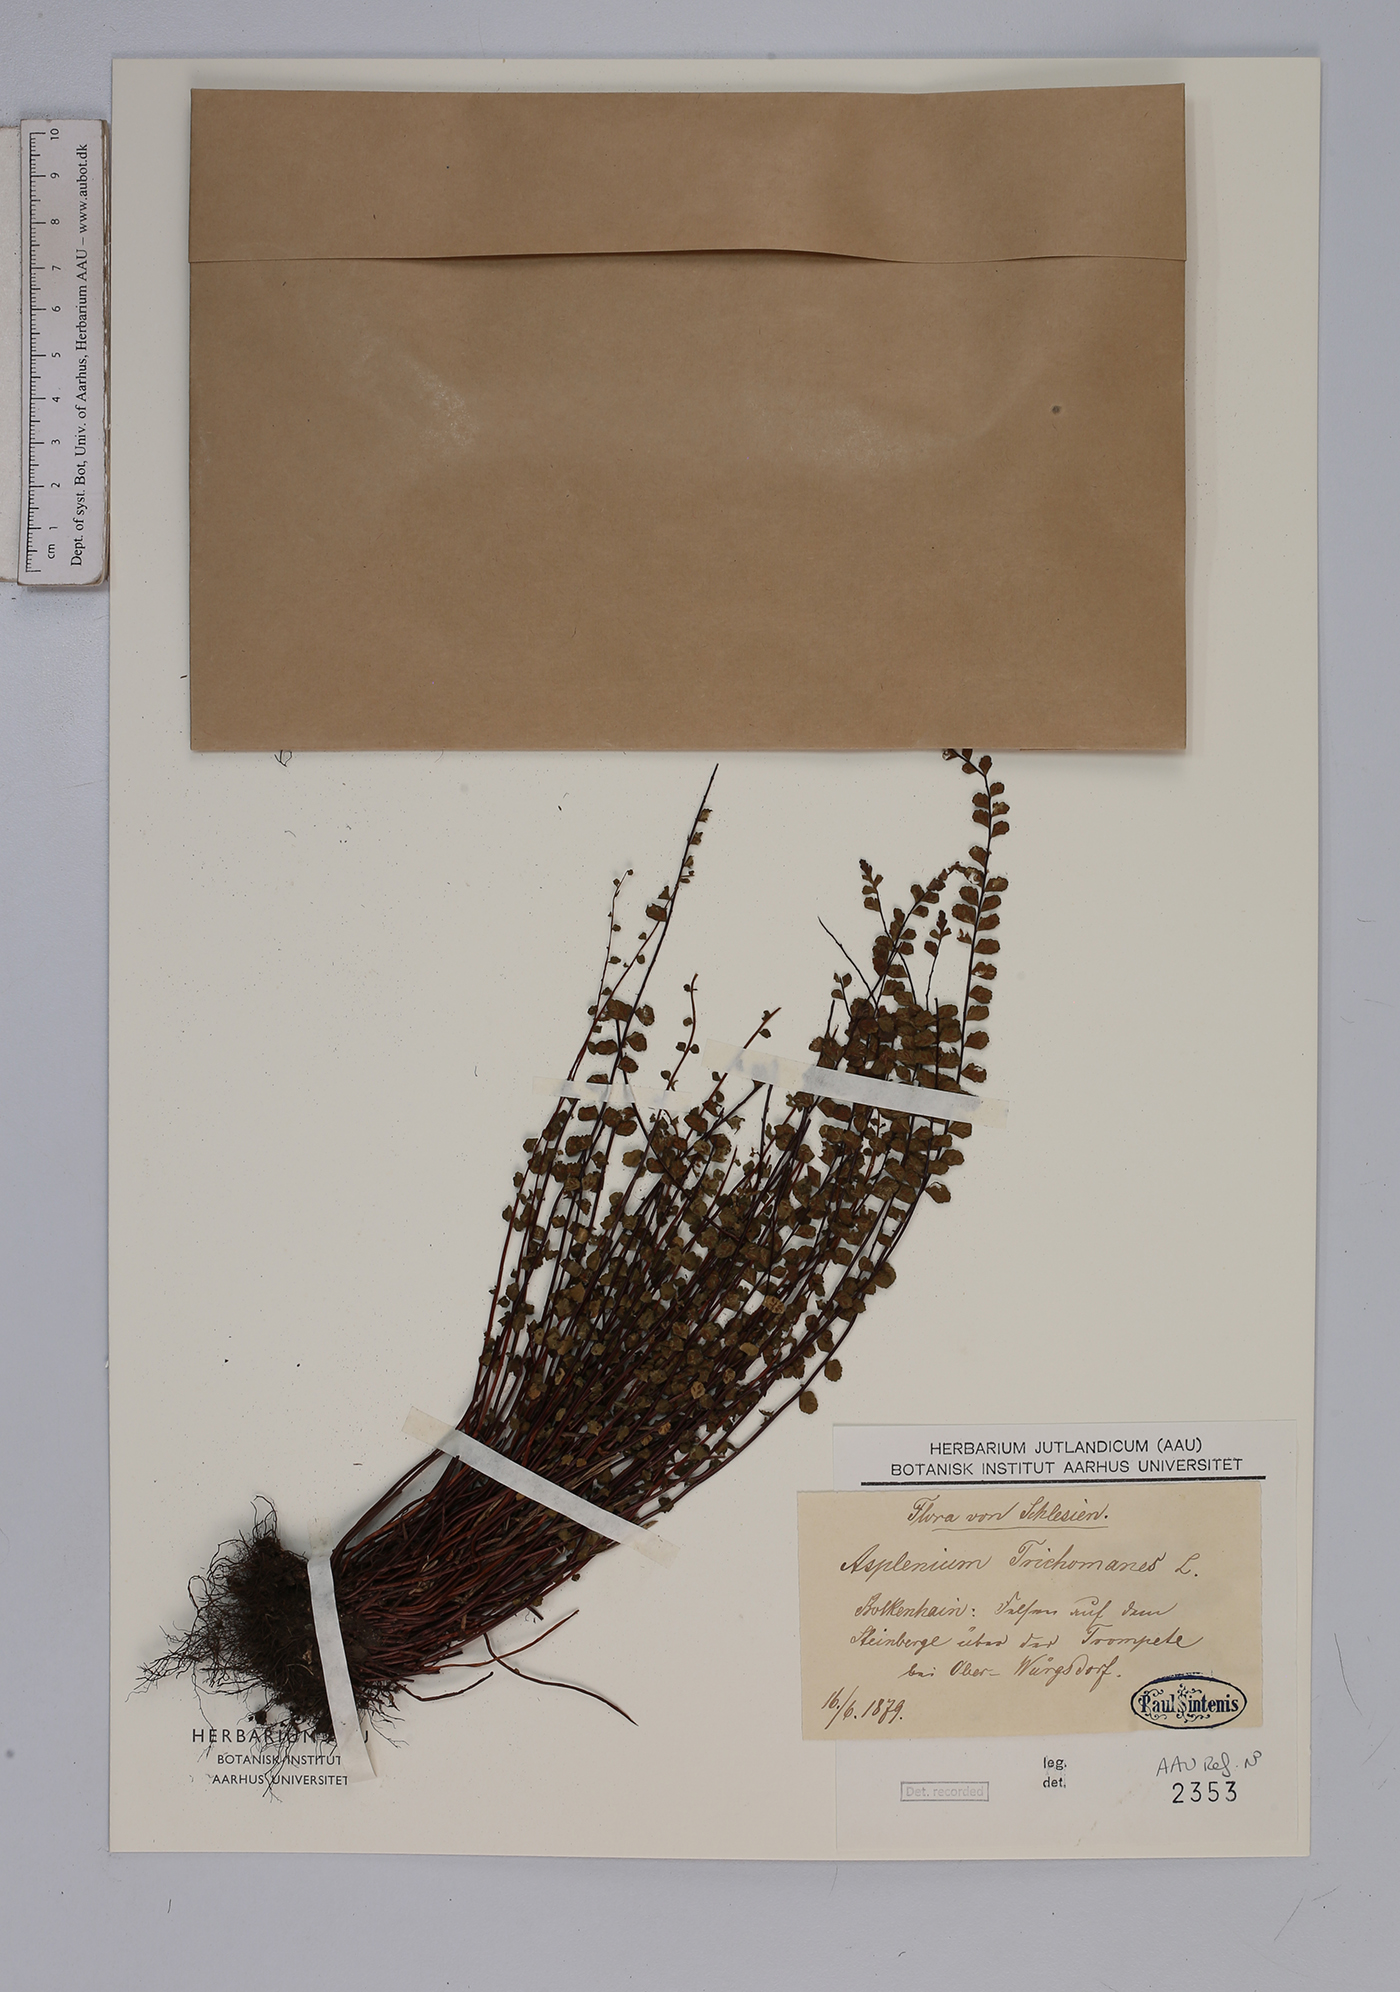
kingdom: Plantae
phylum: Tracheophyta
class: Polypodiopsida
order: Polypodiales
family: Aspleniaceae
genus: Asplenium
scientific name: Asplenium trichomanes
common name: Maidenhair spleenwort
